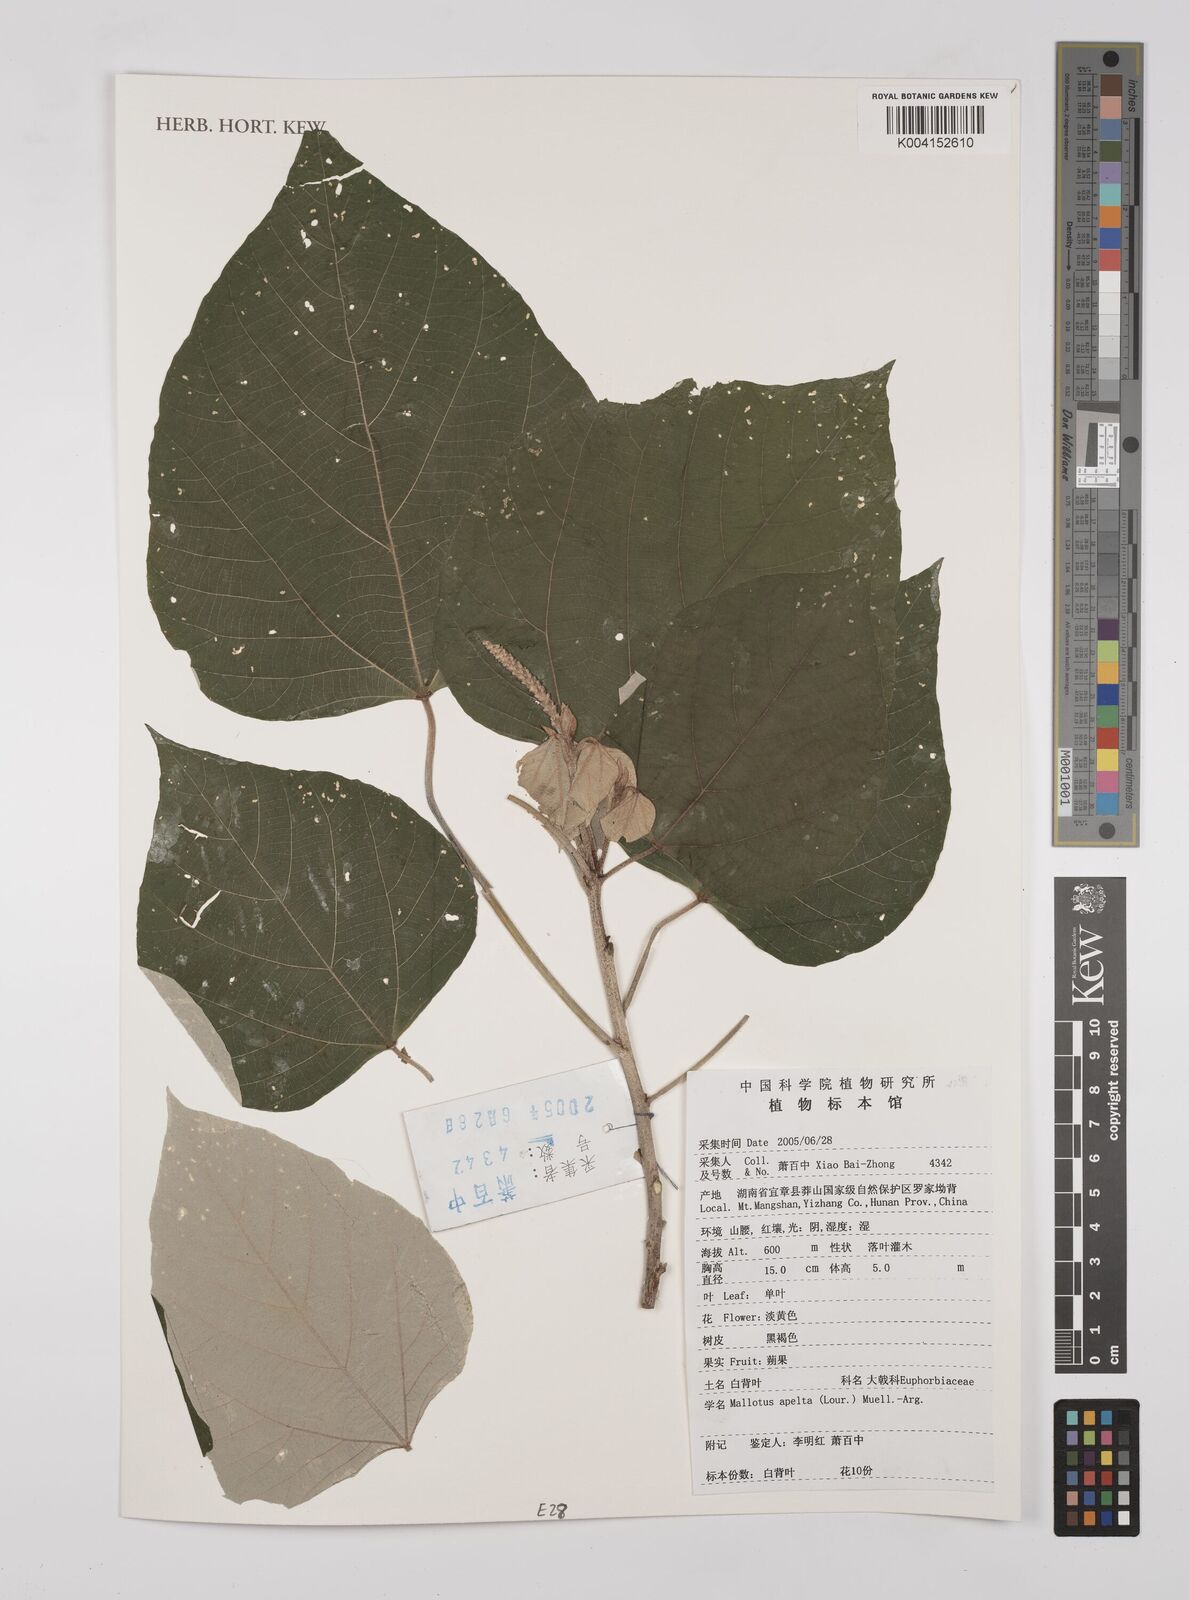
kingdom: Plantae
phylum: Tracheophyta
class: Magnoliopsida
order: Malpighiales
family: Euphorbiaceae
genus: Mallotus
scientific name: Mallotus apelta
